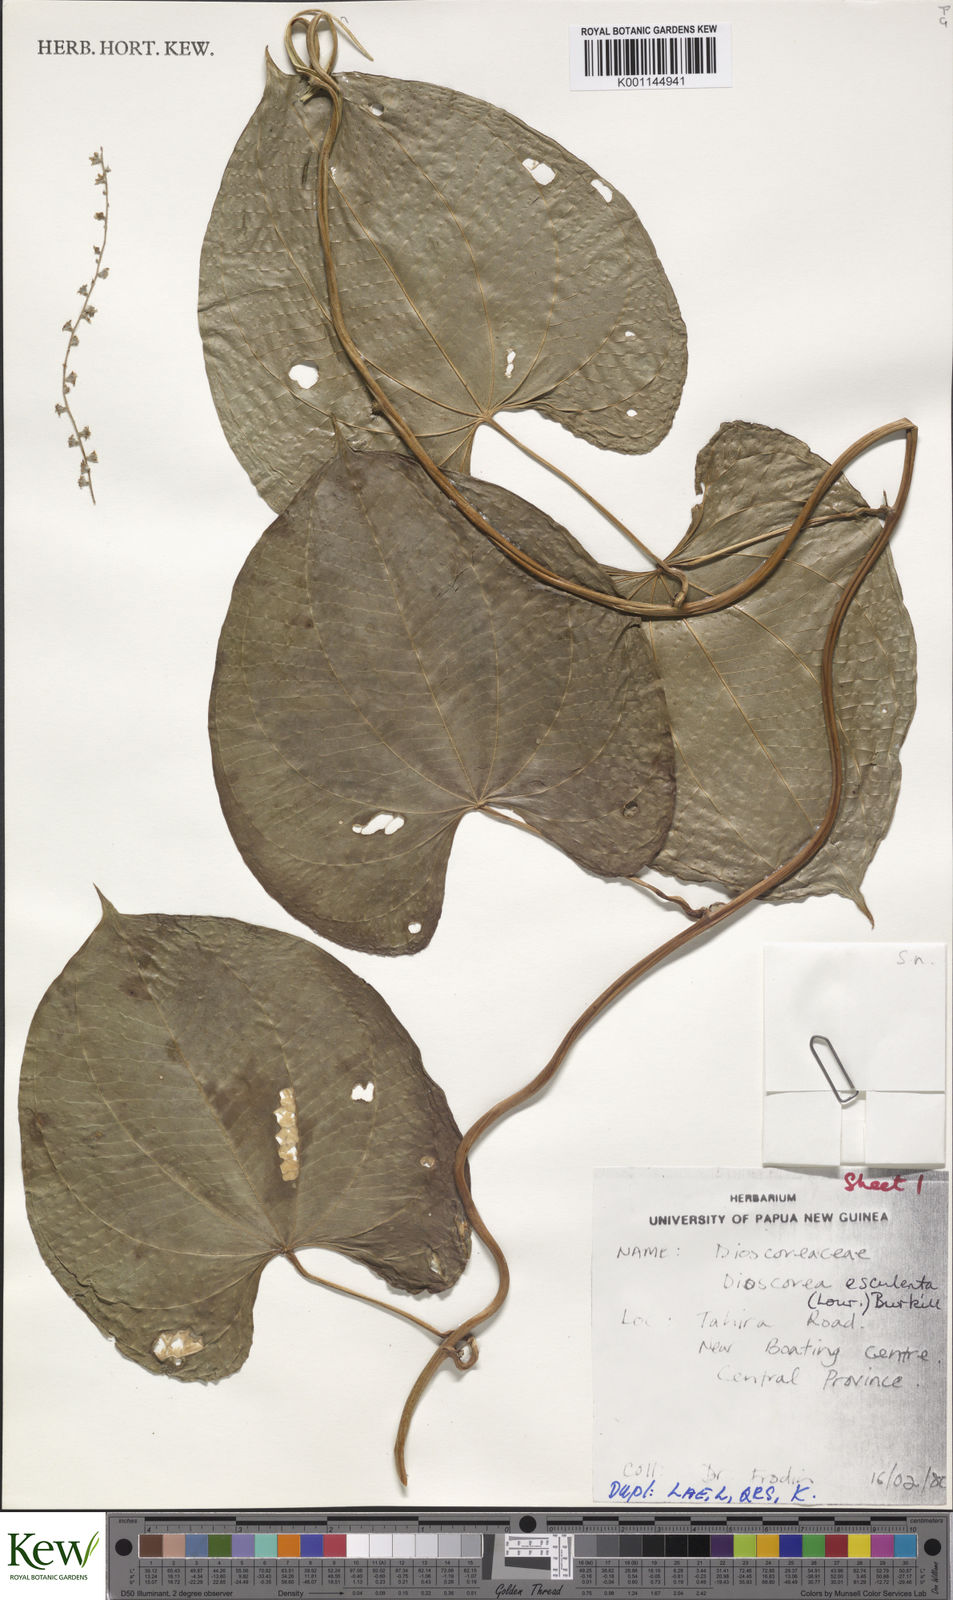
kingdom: Plantae
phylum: Tracheophyta
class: Liliopsida
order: Dioscoreales
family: Dioscoreaceae
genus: Dioscorea
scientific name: Dioscorea esculenta
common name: Chinese yam
